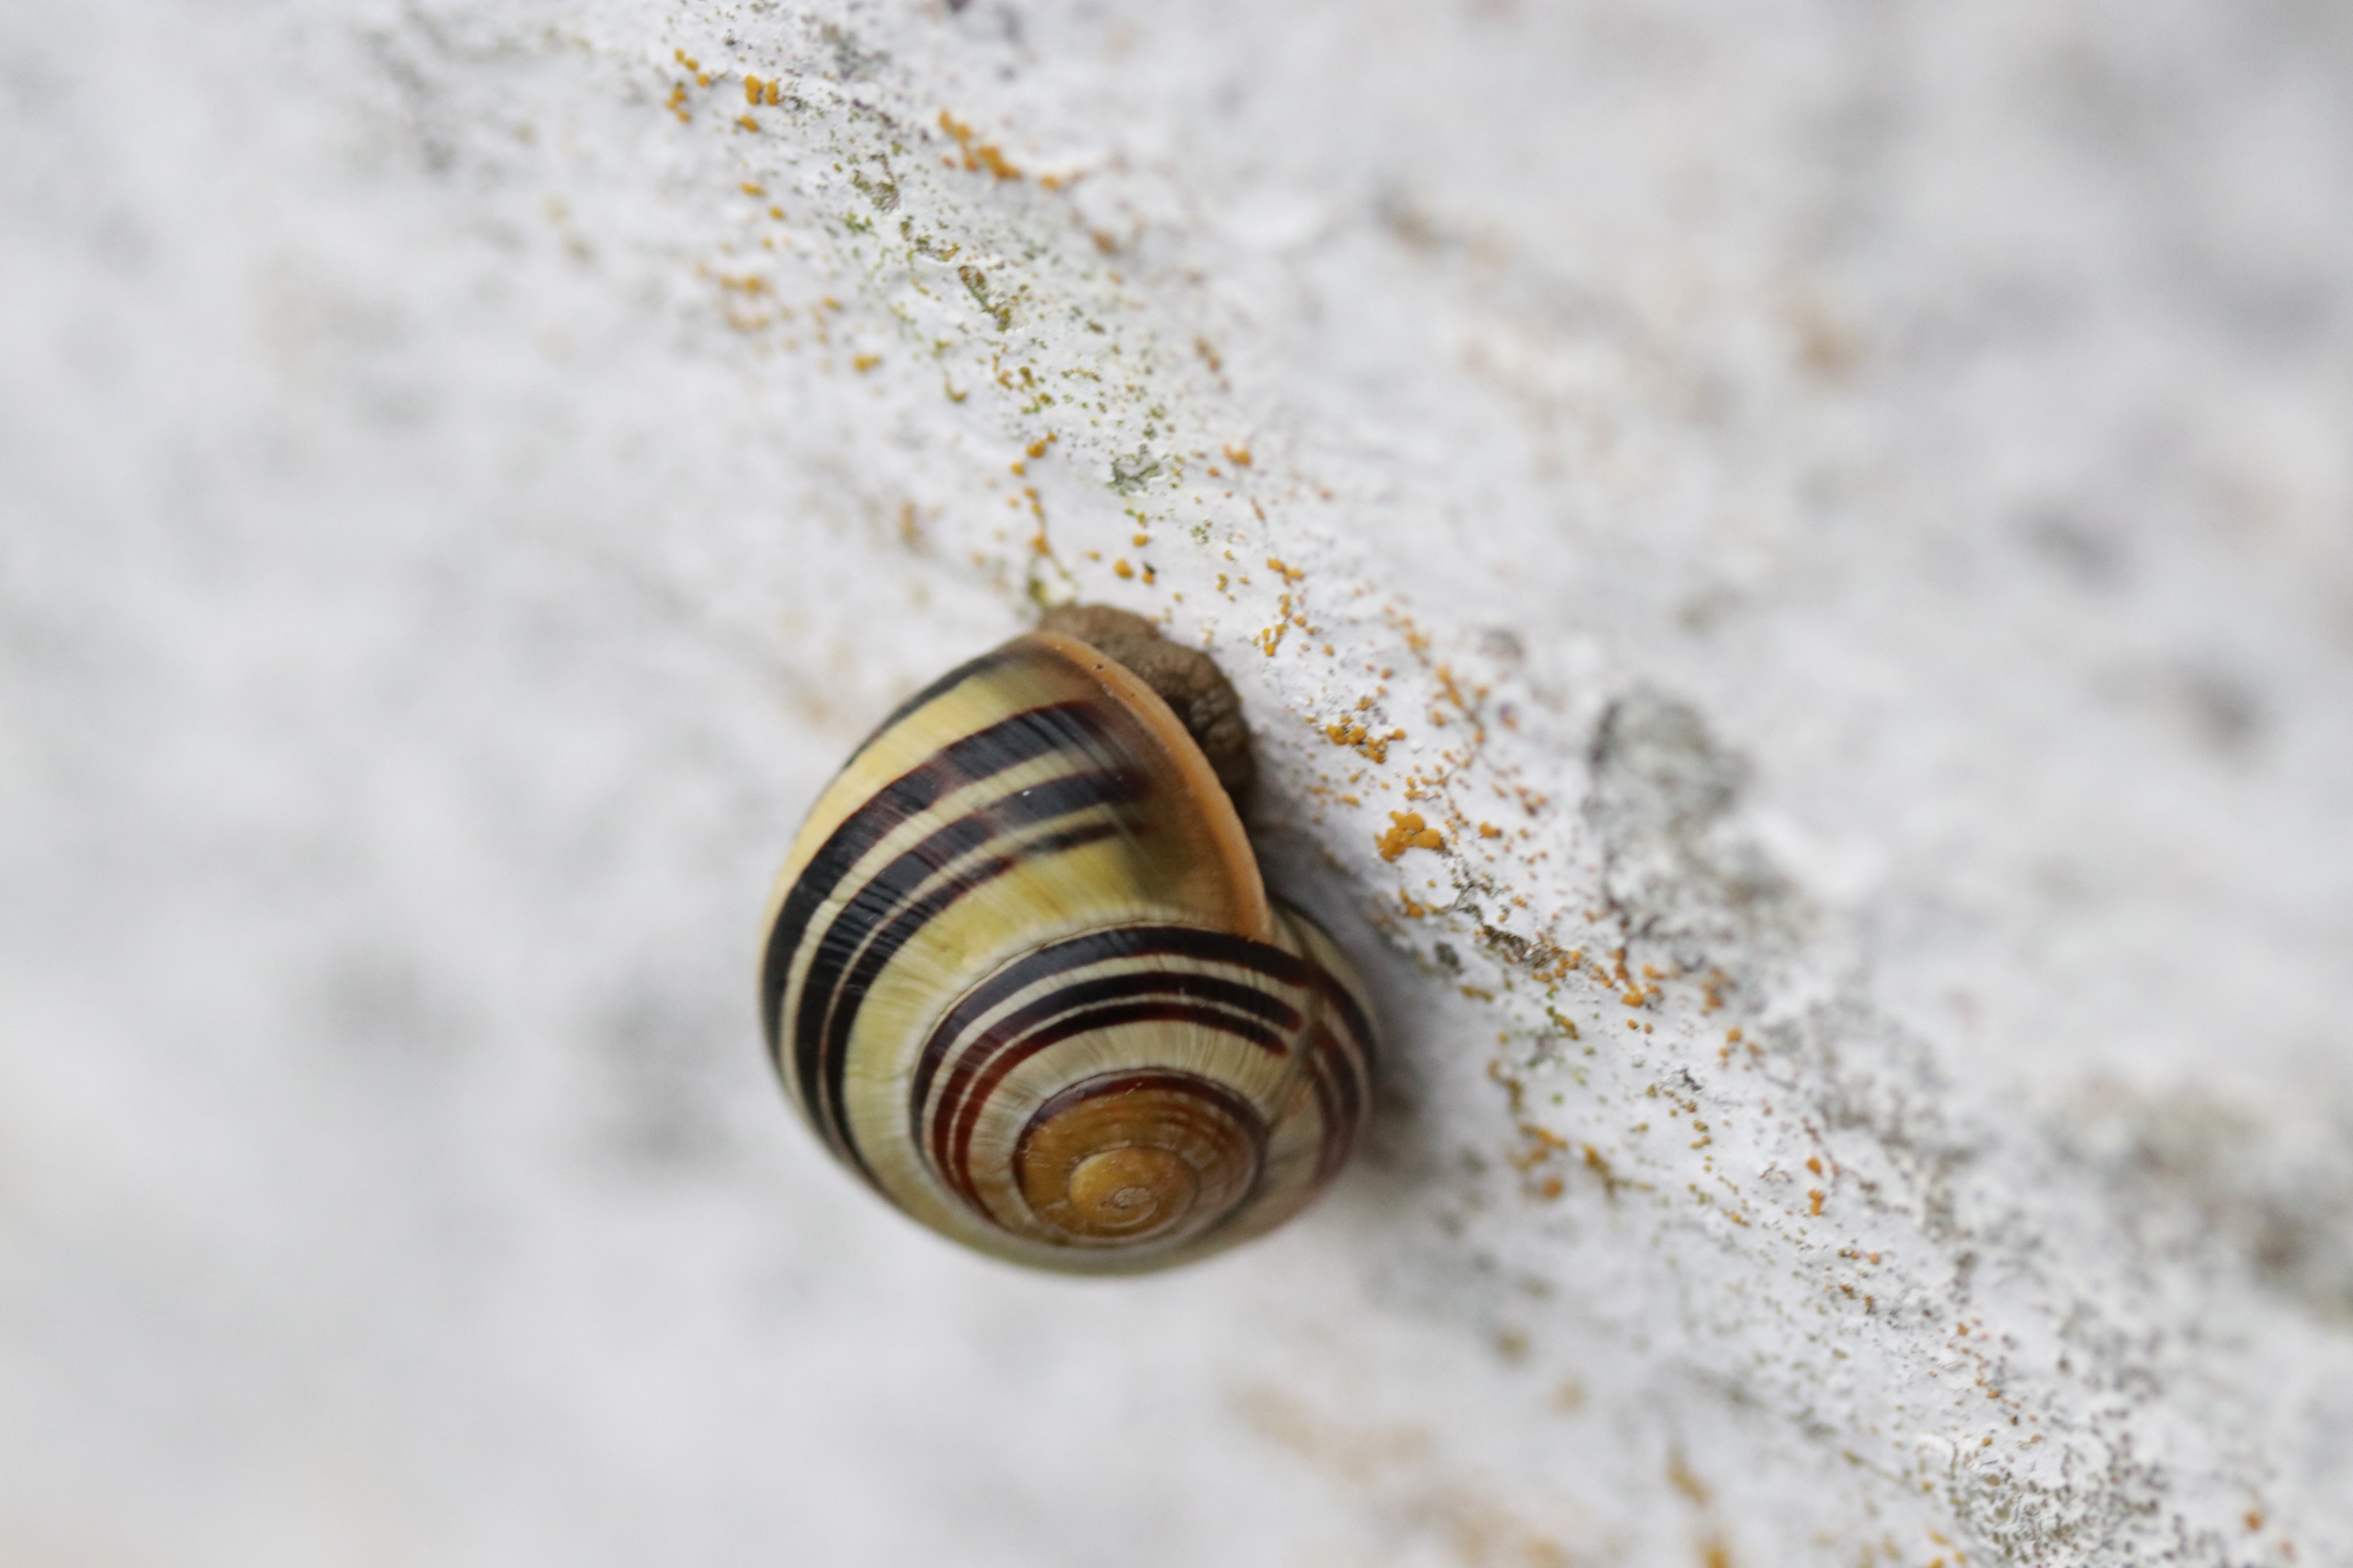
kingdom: Animalia
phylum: Mollusca
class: Gastropoda
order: Stylommatophora
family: Helicidae
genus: Cepaea
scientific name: Cepaea hortensis
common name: Havesnegl
